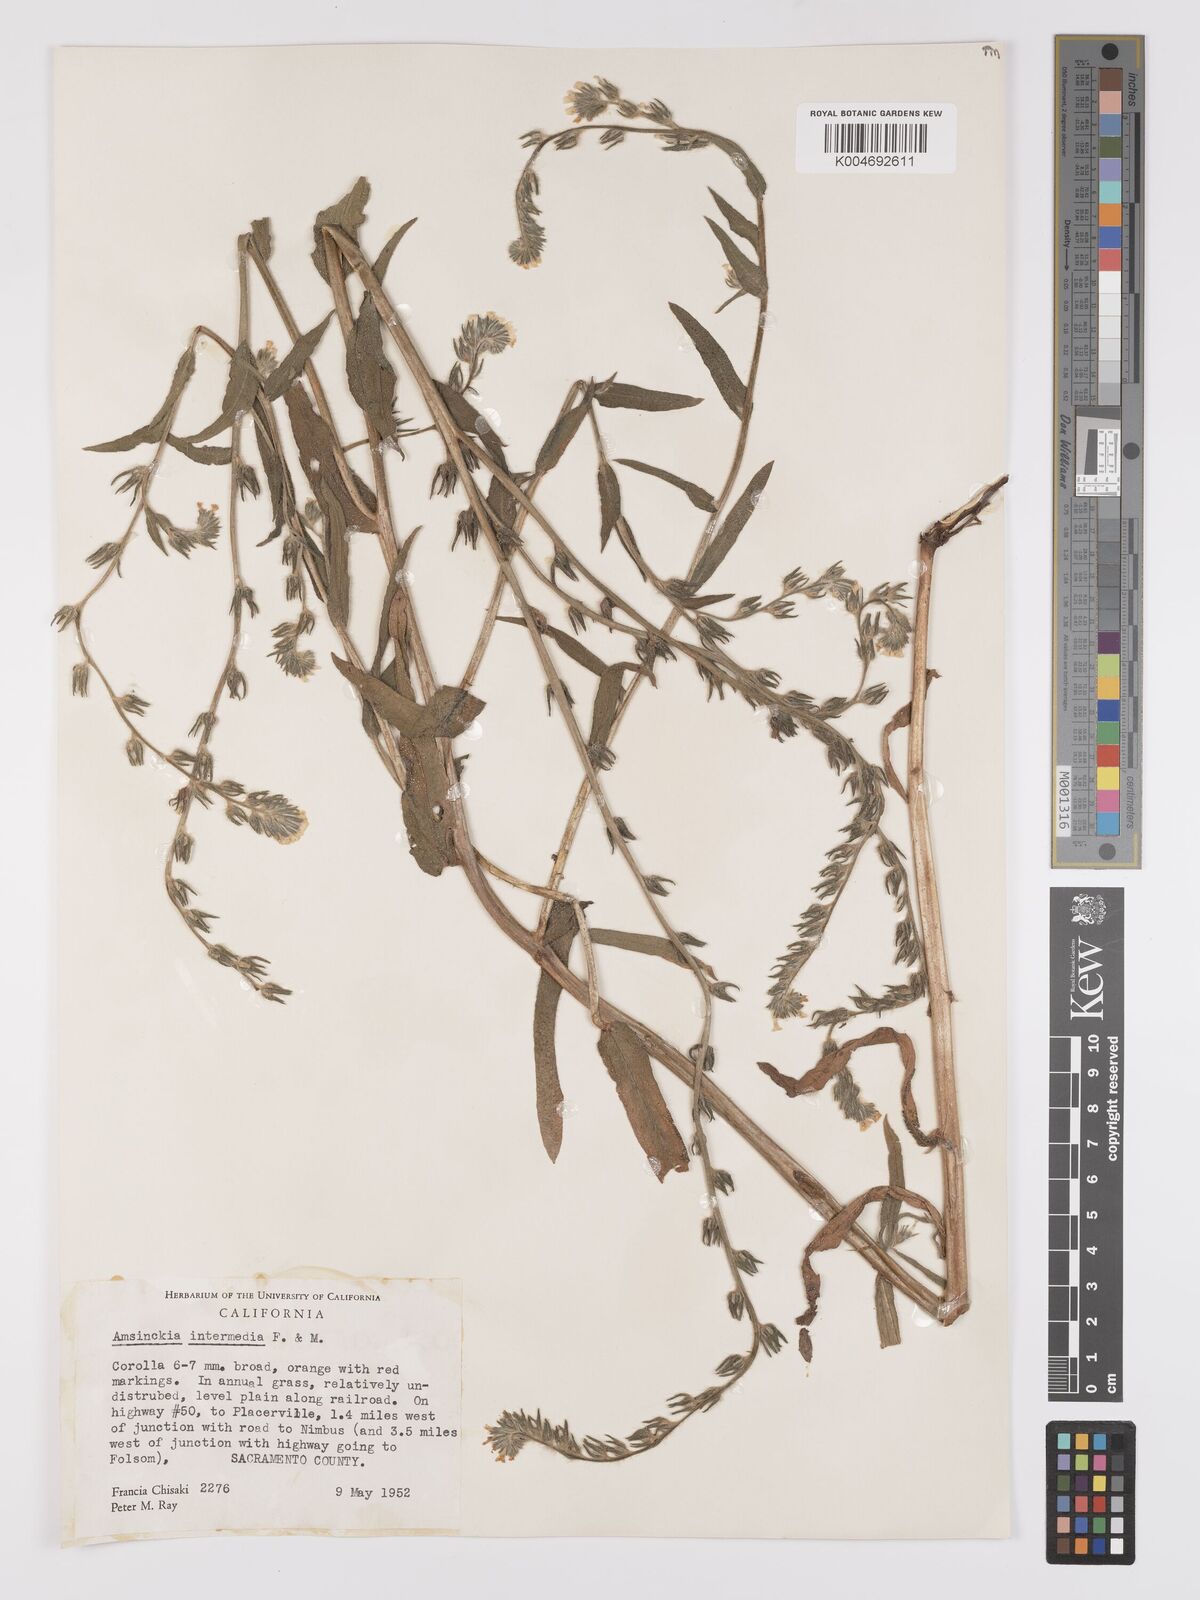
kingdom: Plantae
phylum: Tracheophyta
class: Magnoliopsida
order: Boraginales
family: Boraginaceae
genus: Amsinckia
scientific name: Amsinckia menziesii
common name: Menzies' fiddleneck
